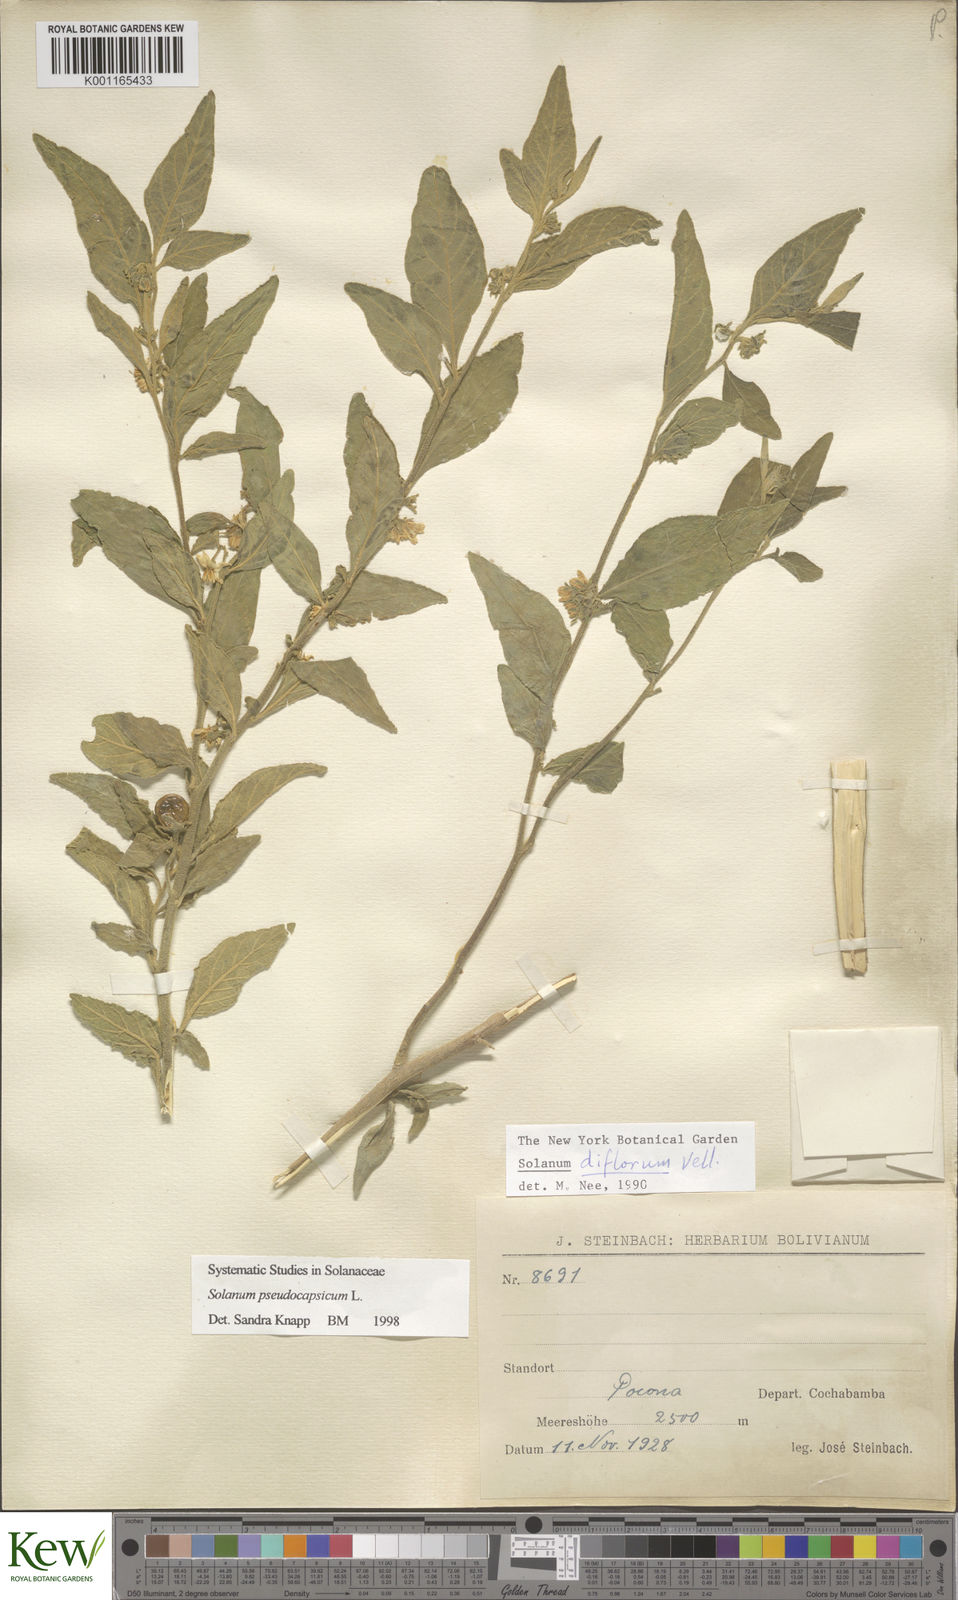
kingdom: Plantae
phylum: Tracheophyta
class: Magnoliopsida
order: Solanales
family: Solanaceae
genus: Solanum
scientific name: Solanum pseudocapsicum
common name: Jerusalem cherry
